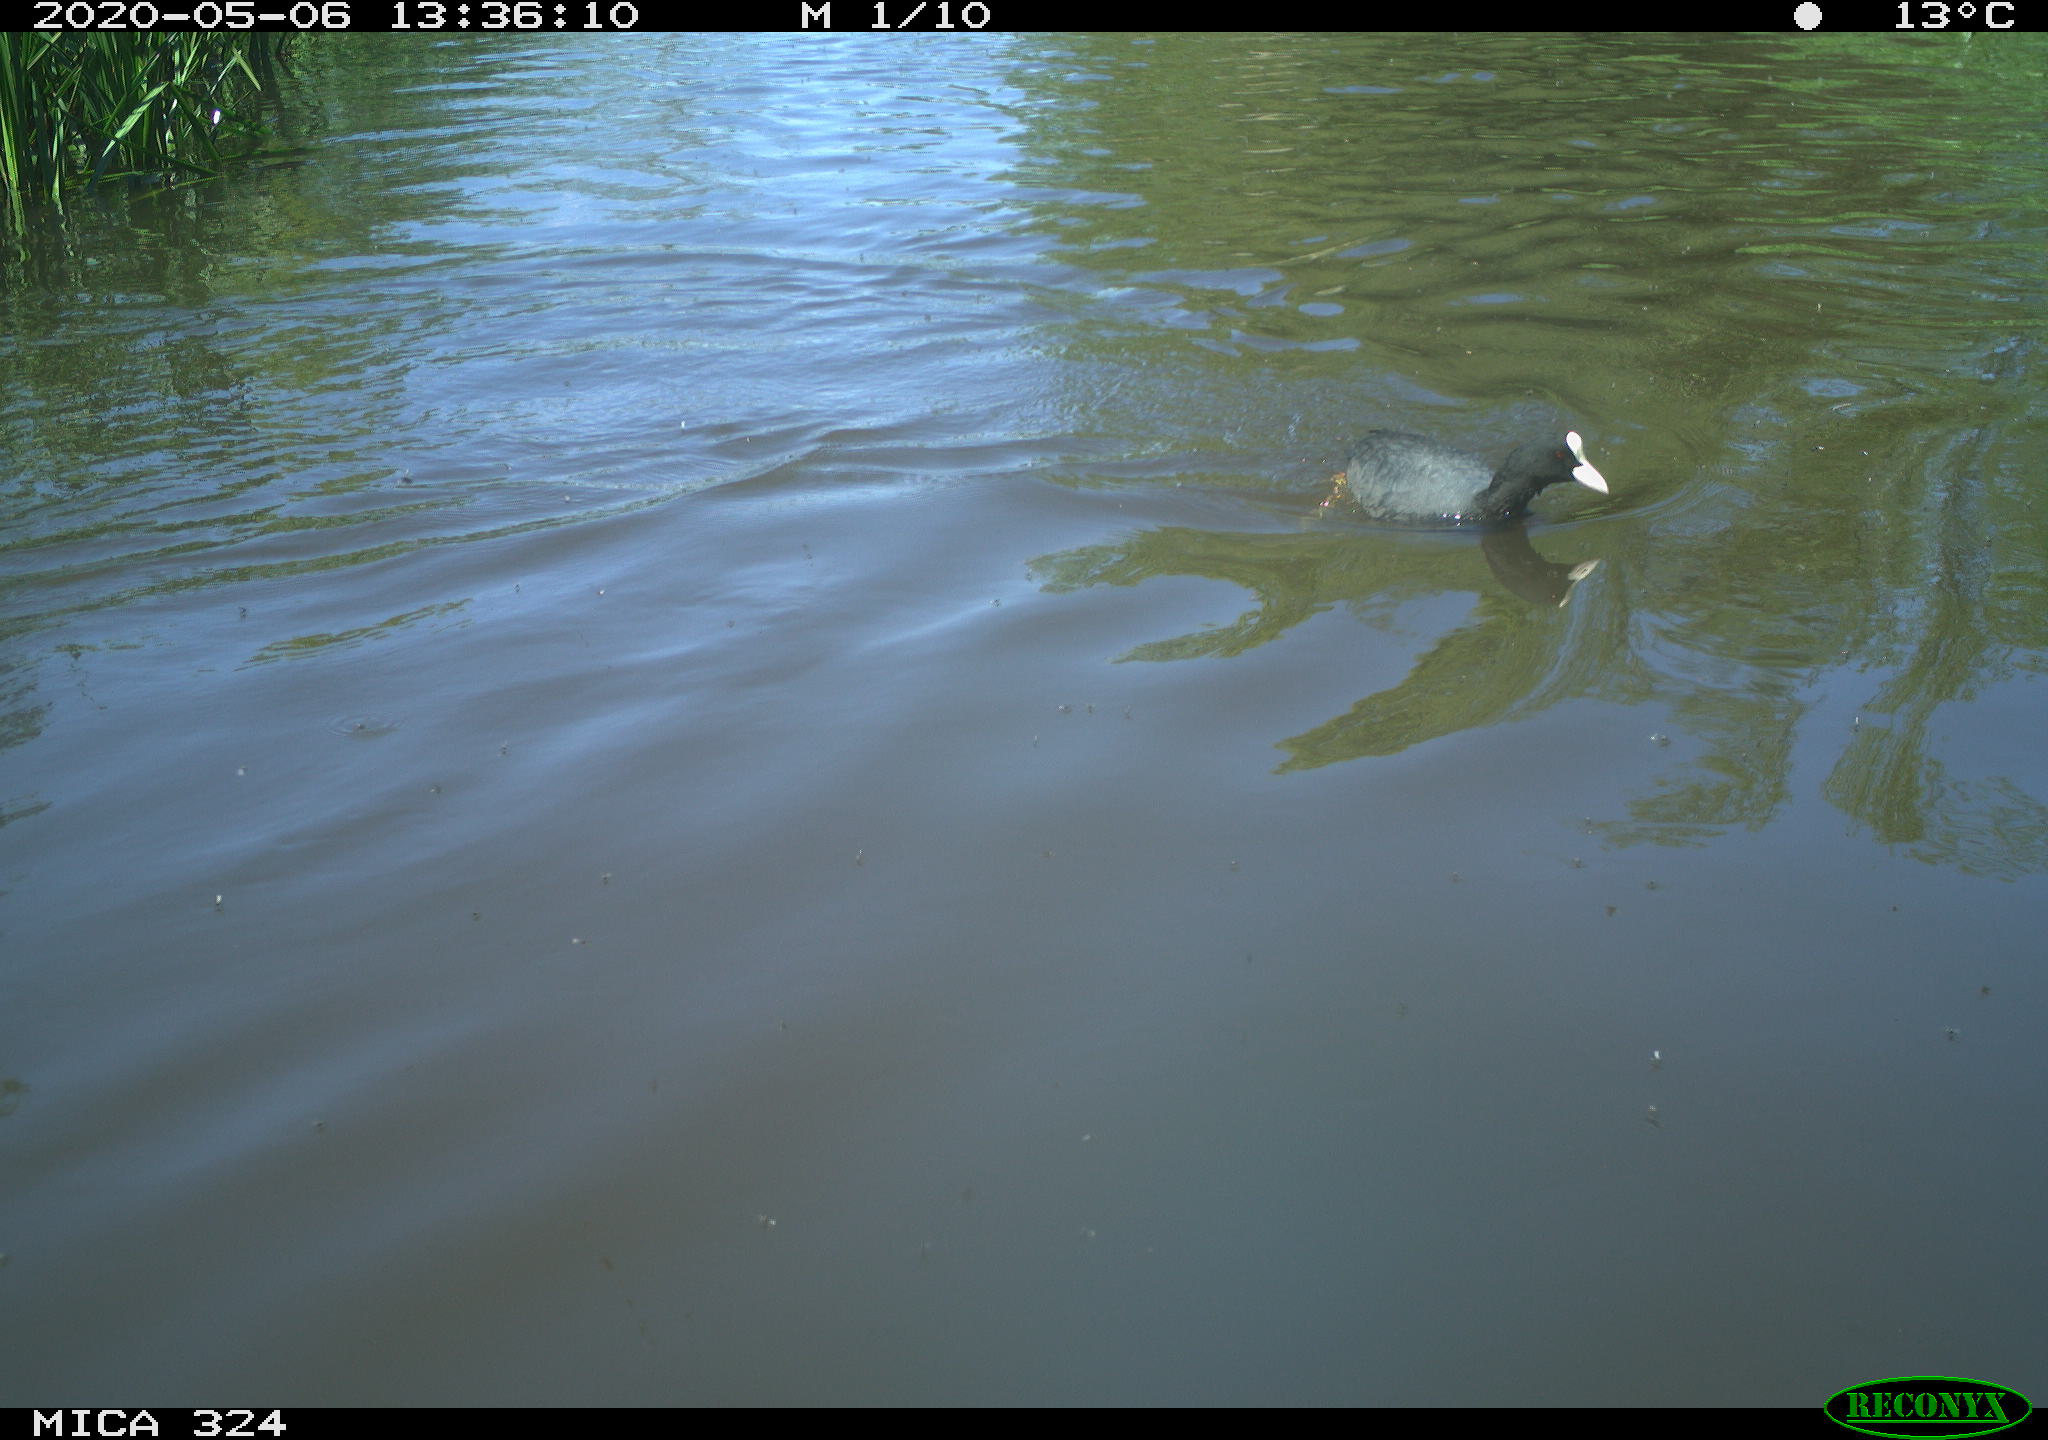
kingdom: Animalia
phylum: Chordata
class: Aves
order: Gruiformes
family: Rallidae
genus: Fulica
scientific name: Fulica atra
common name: Eurasian coot
